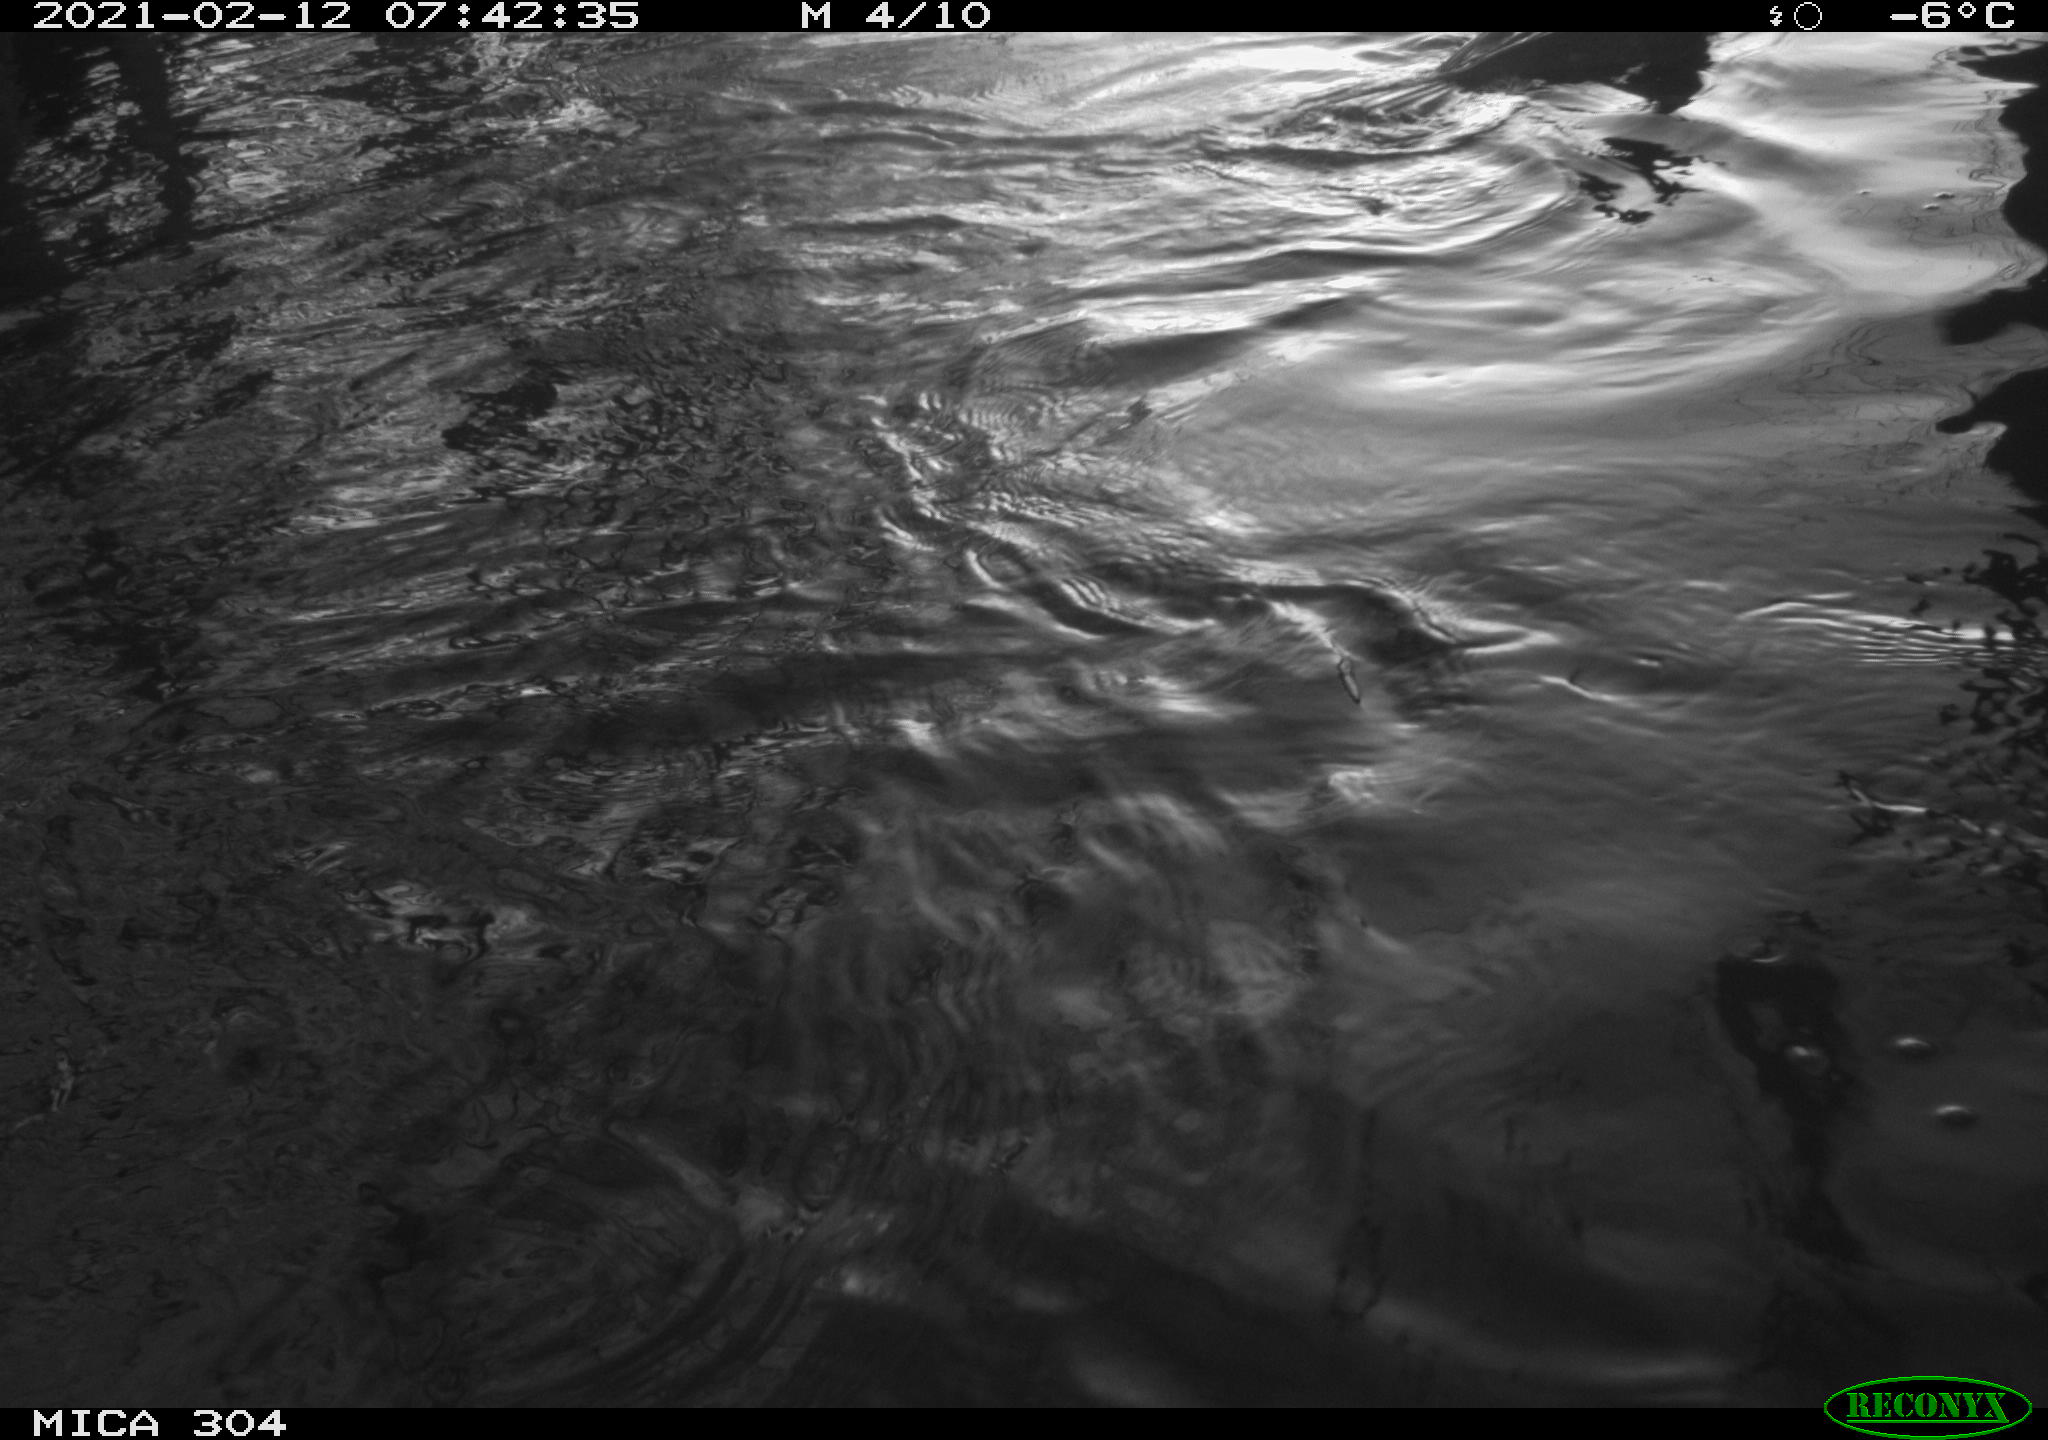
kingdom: Animalia
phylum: Chordata
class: Aves
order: Suliformes
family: Phalacrocoracidae
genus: Phalacrocorax
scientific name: Phalacrocorax carbo
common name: Great cormorant
